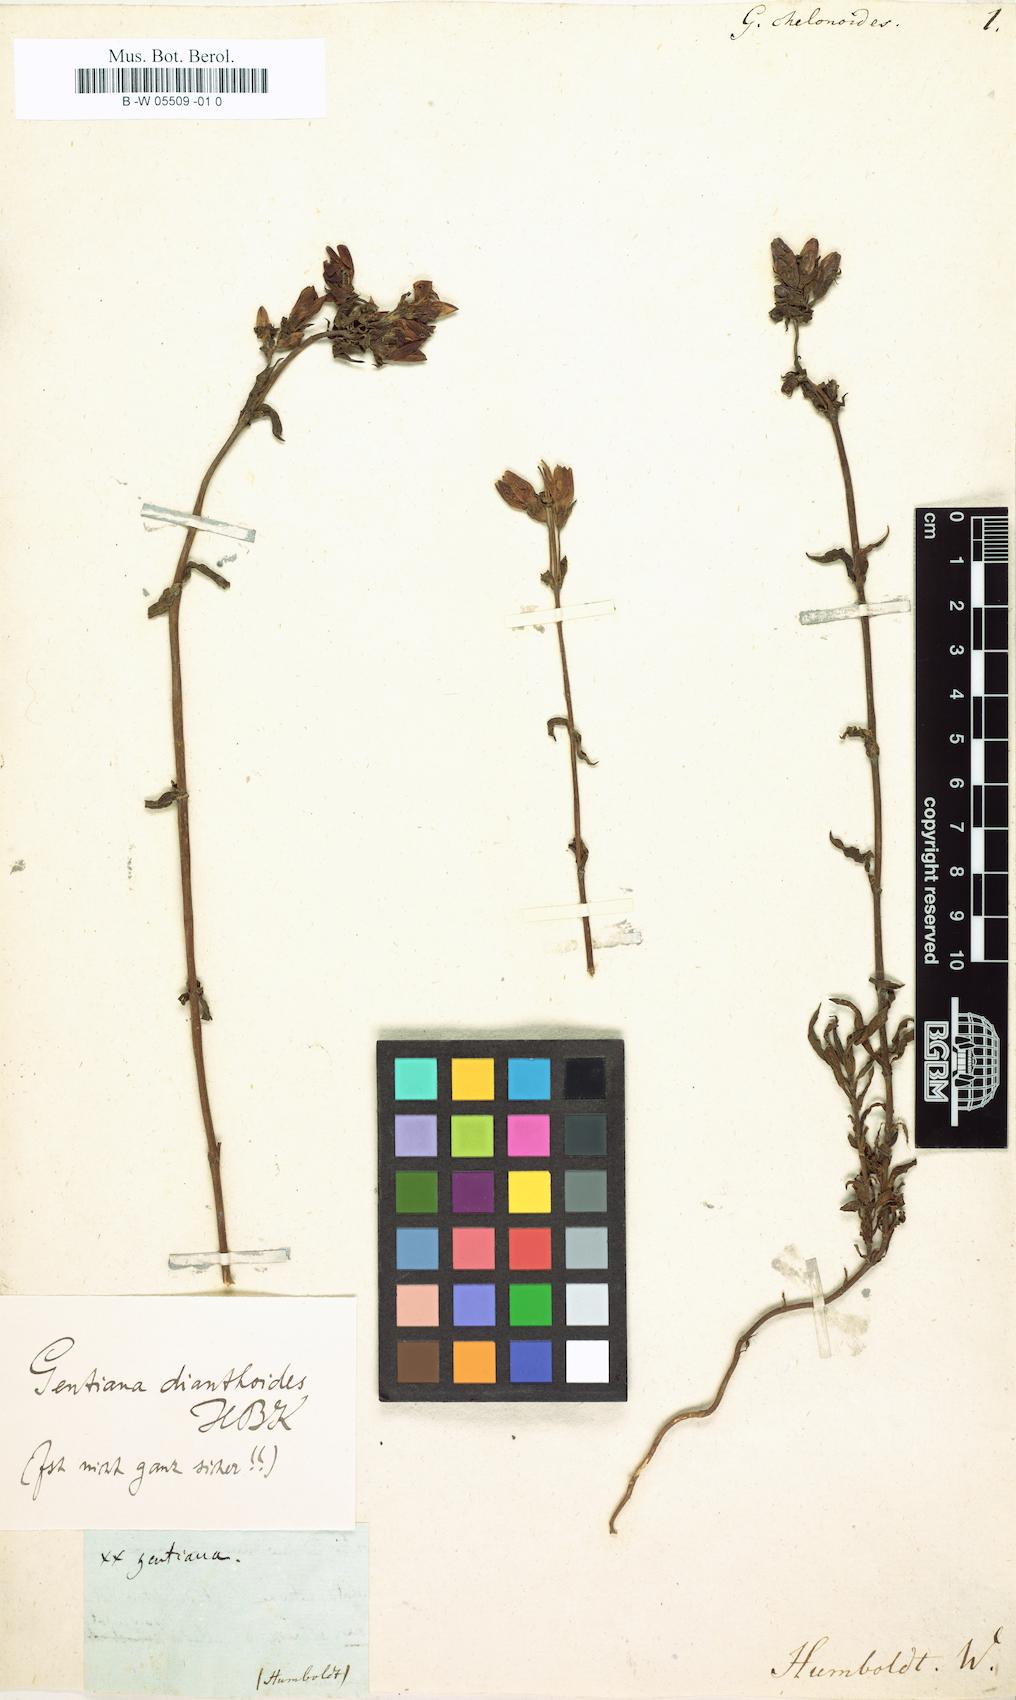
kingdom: Plantae
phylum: Tracheophyta
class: Magnoliopsida
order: Gentianales
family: Gentianaceae
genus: Gentianella
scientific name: Gentianella dianthoides
